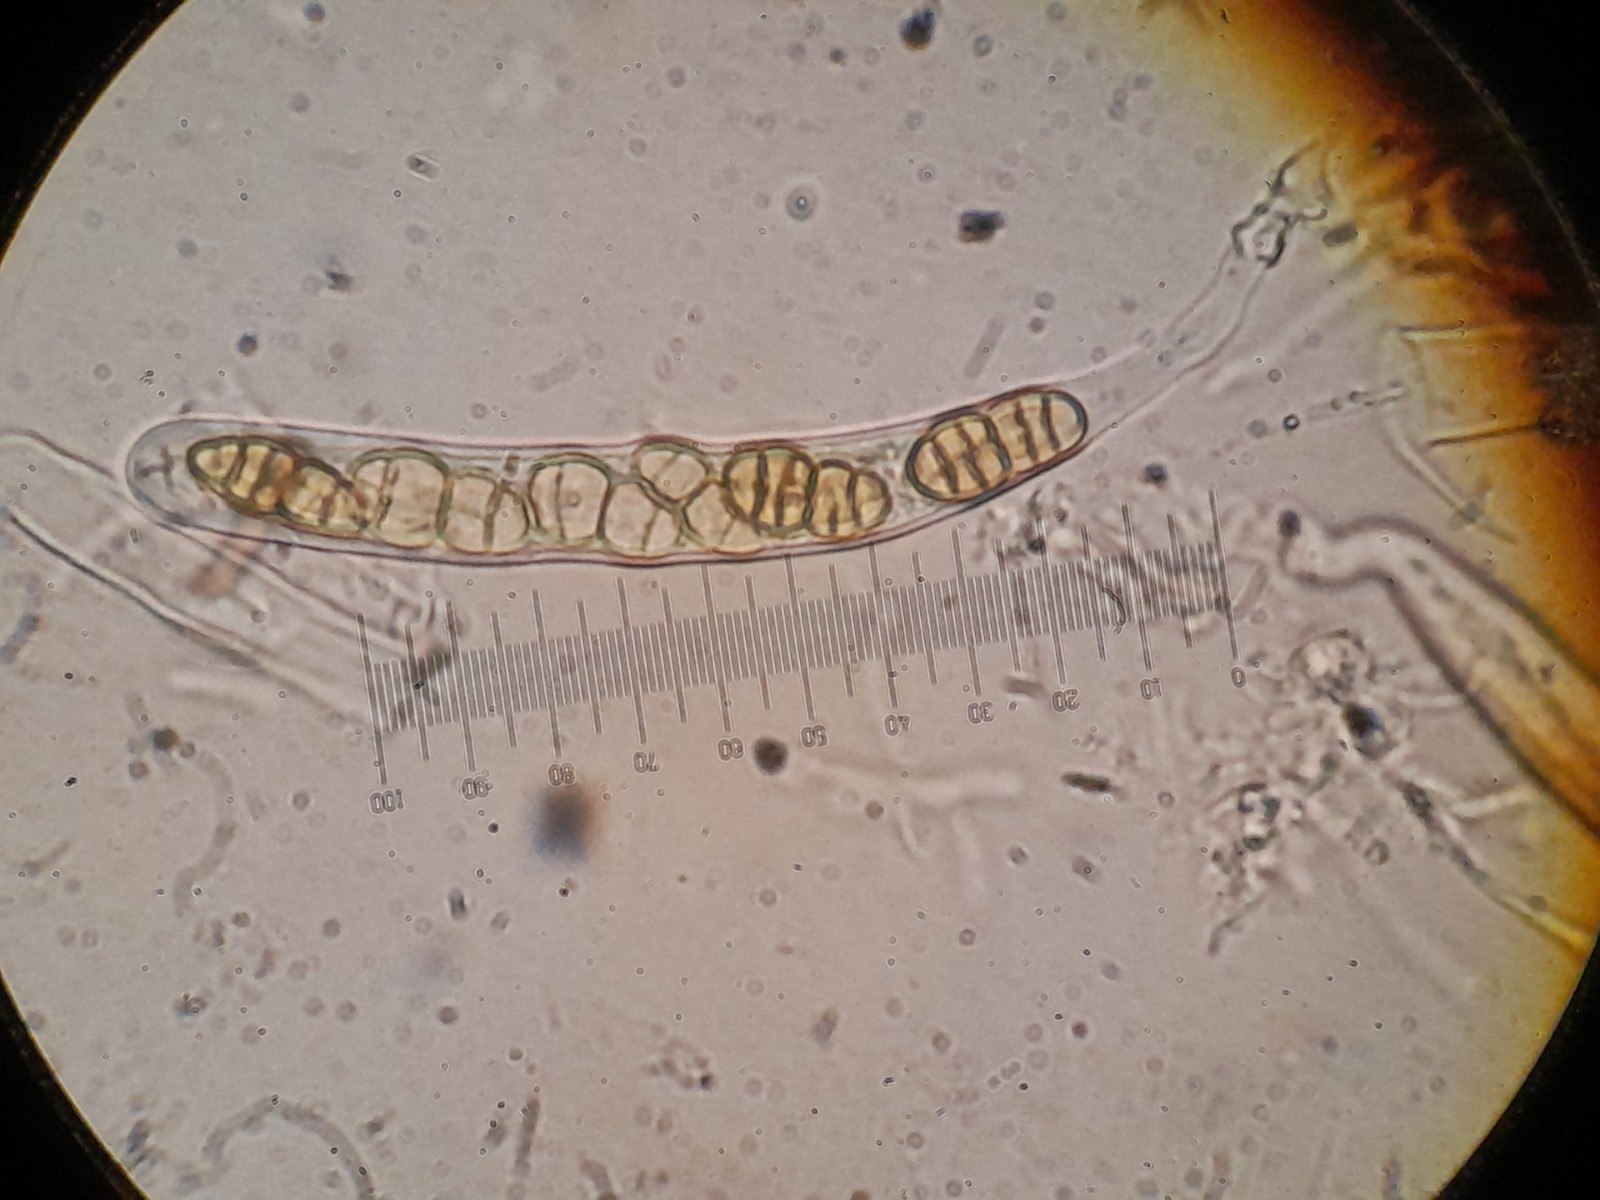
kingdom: Fungi
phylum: Ascomycota
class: Dothideomycetes
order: Pleosporales
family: Pleosporaceae
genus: Pleospora
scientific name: Pleospora rubelloides
